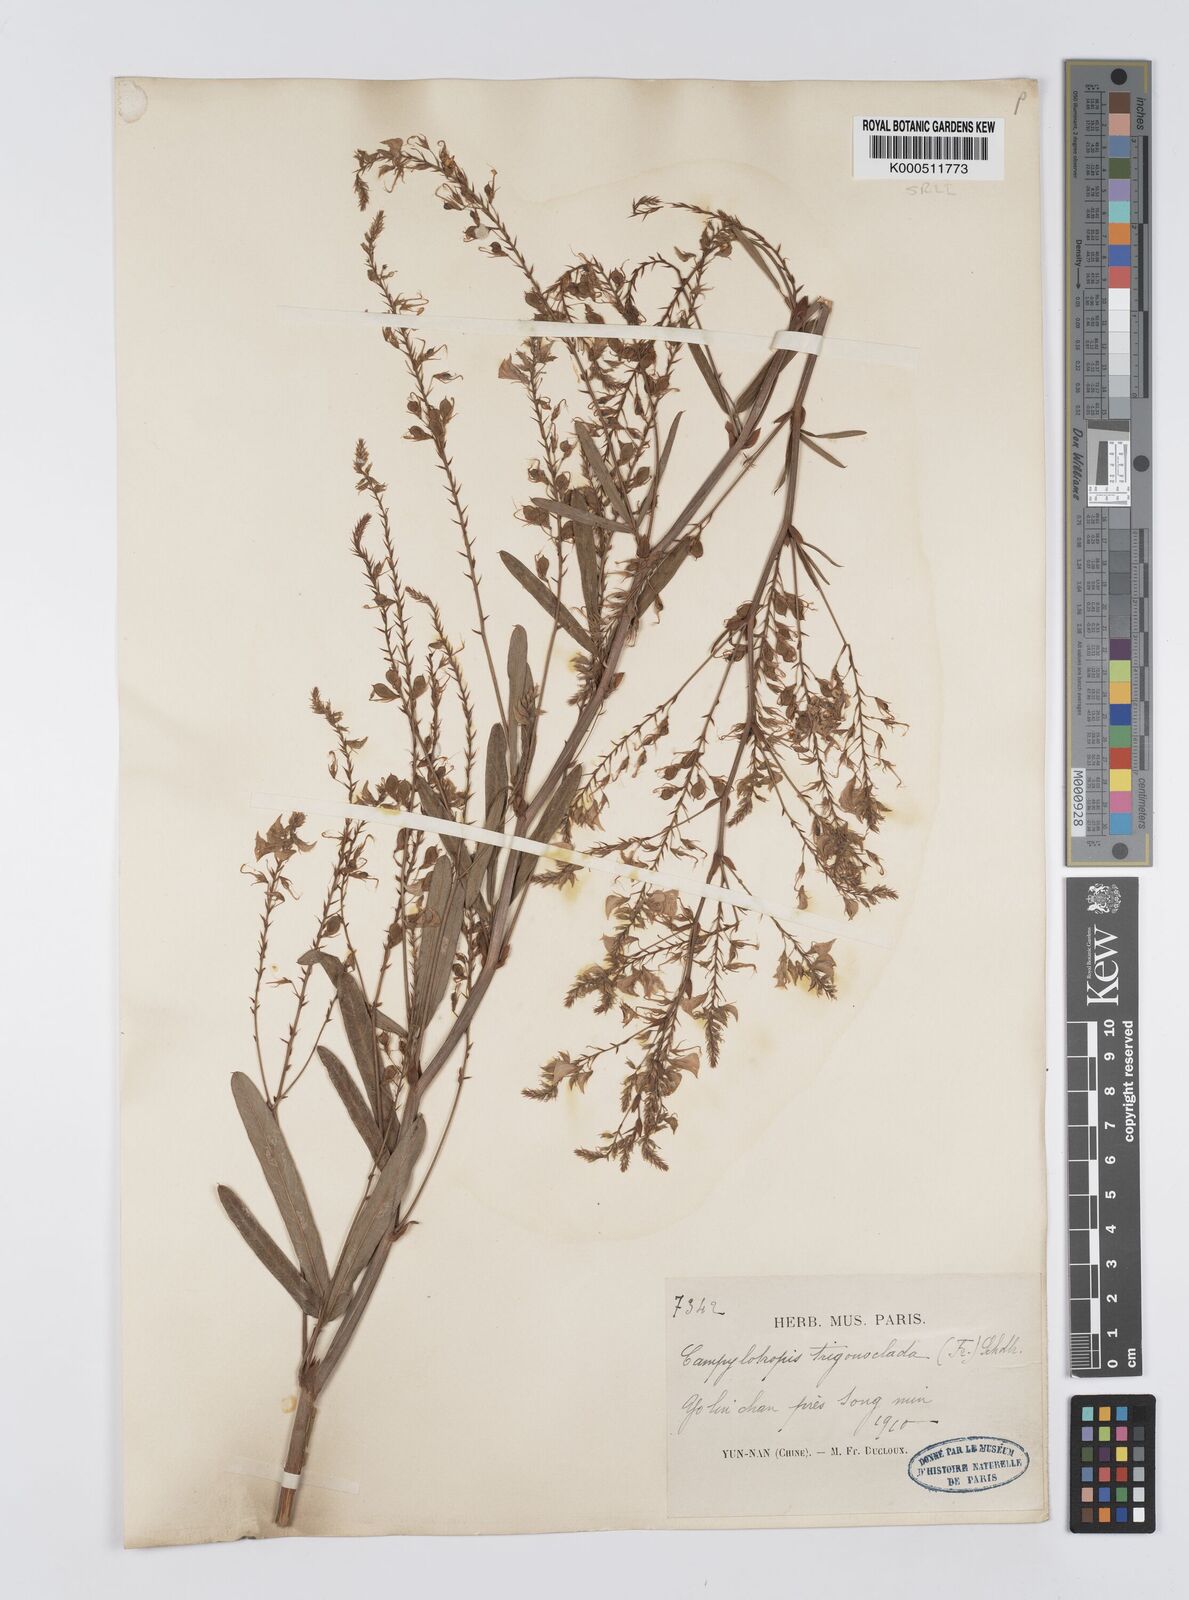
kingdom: Plantae
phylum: Tracheophyta
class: Magnoliopsida
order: Fabales
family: Fabaceae
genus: Campylotropis
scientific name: Campylotropis trigonoclada
